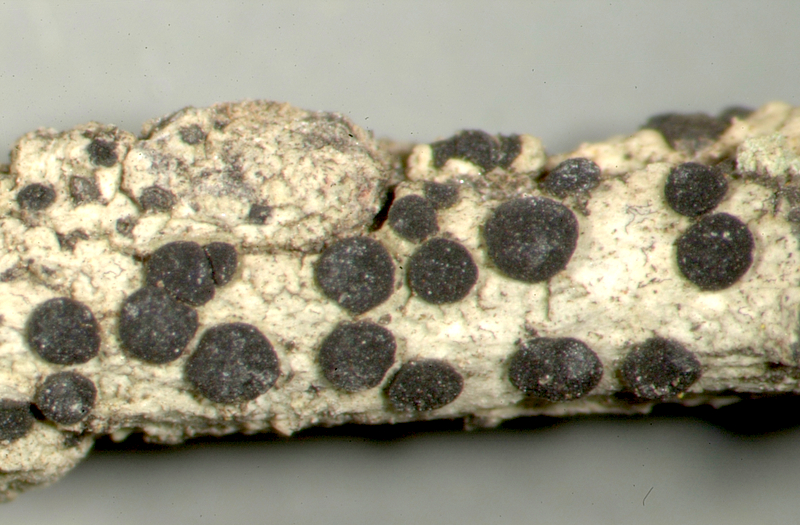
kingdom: Fungi
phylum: Ascomycota
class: Lecanoromycetes
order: Lecanorales
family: Parmeliaceae
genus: Usnea
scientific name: Usnea
